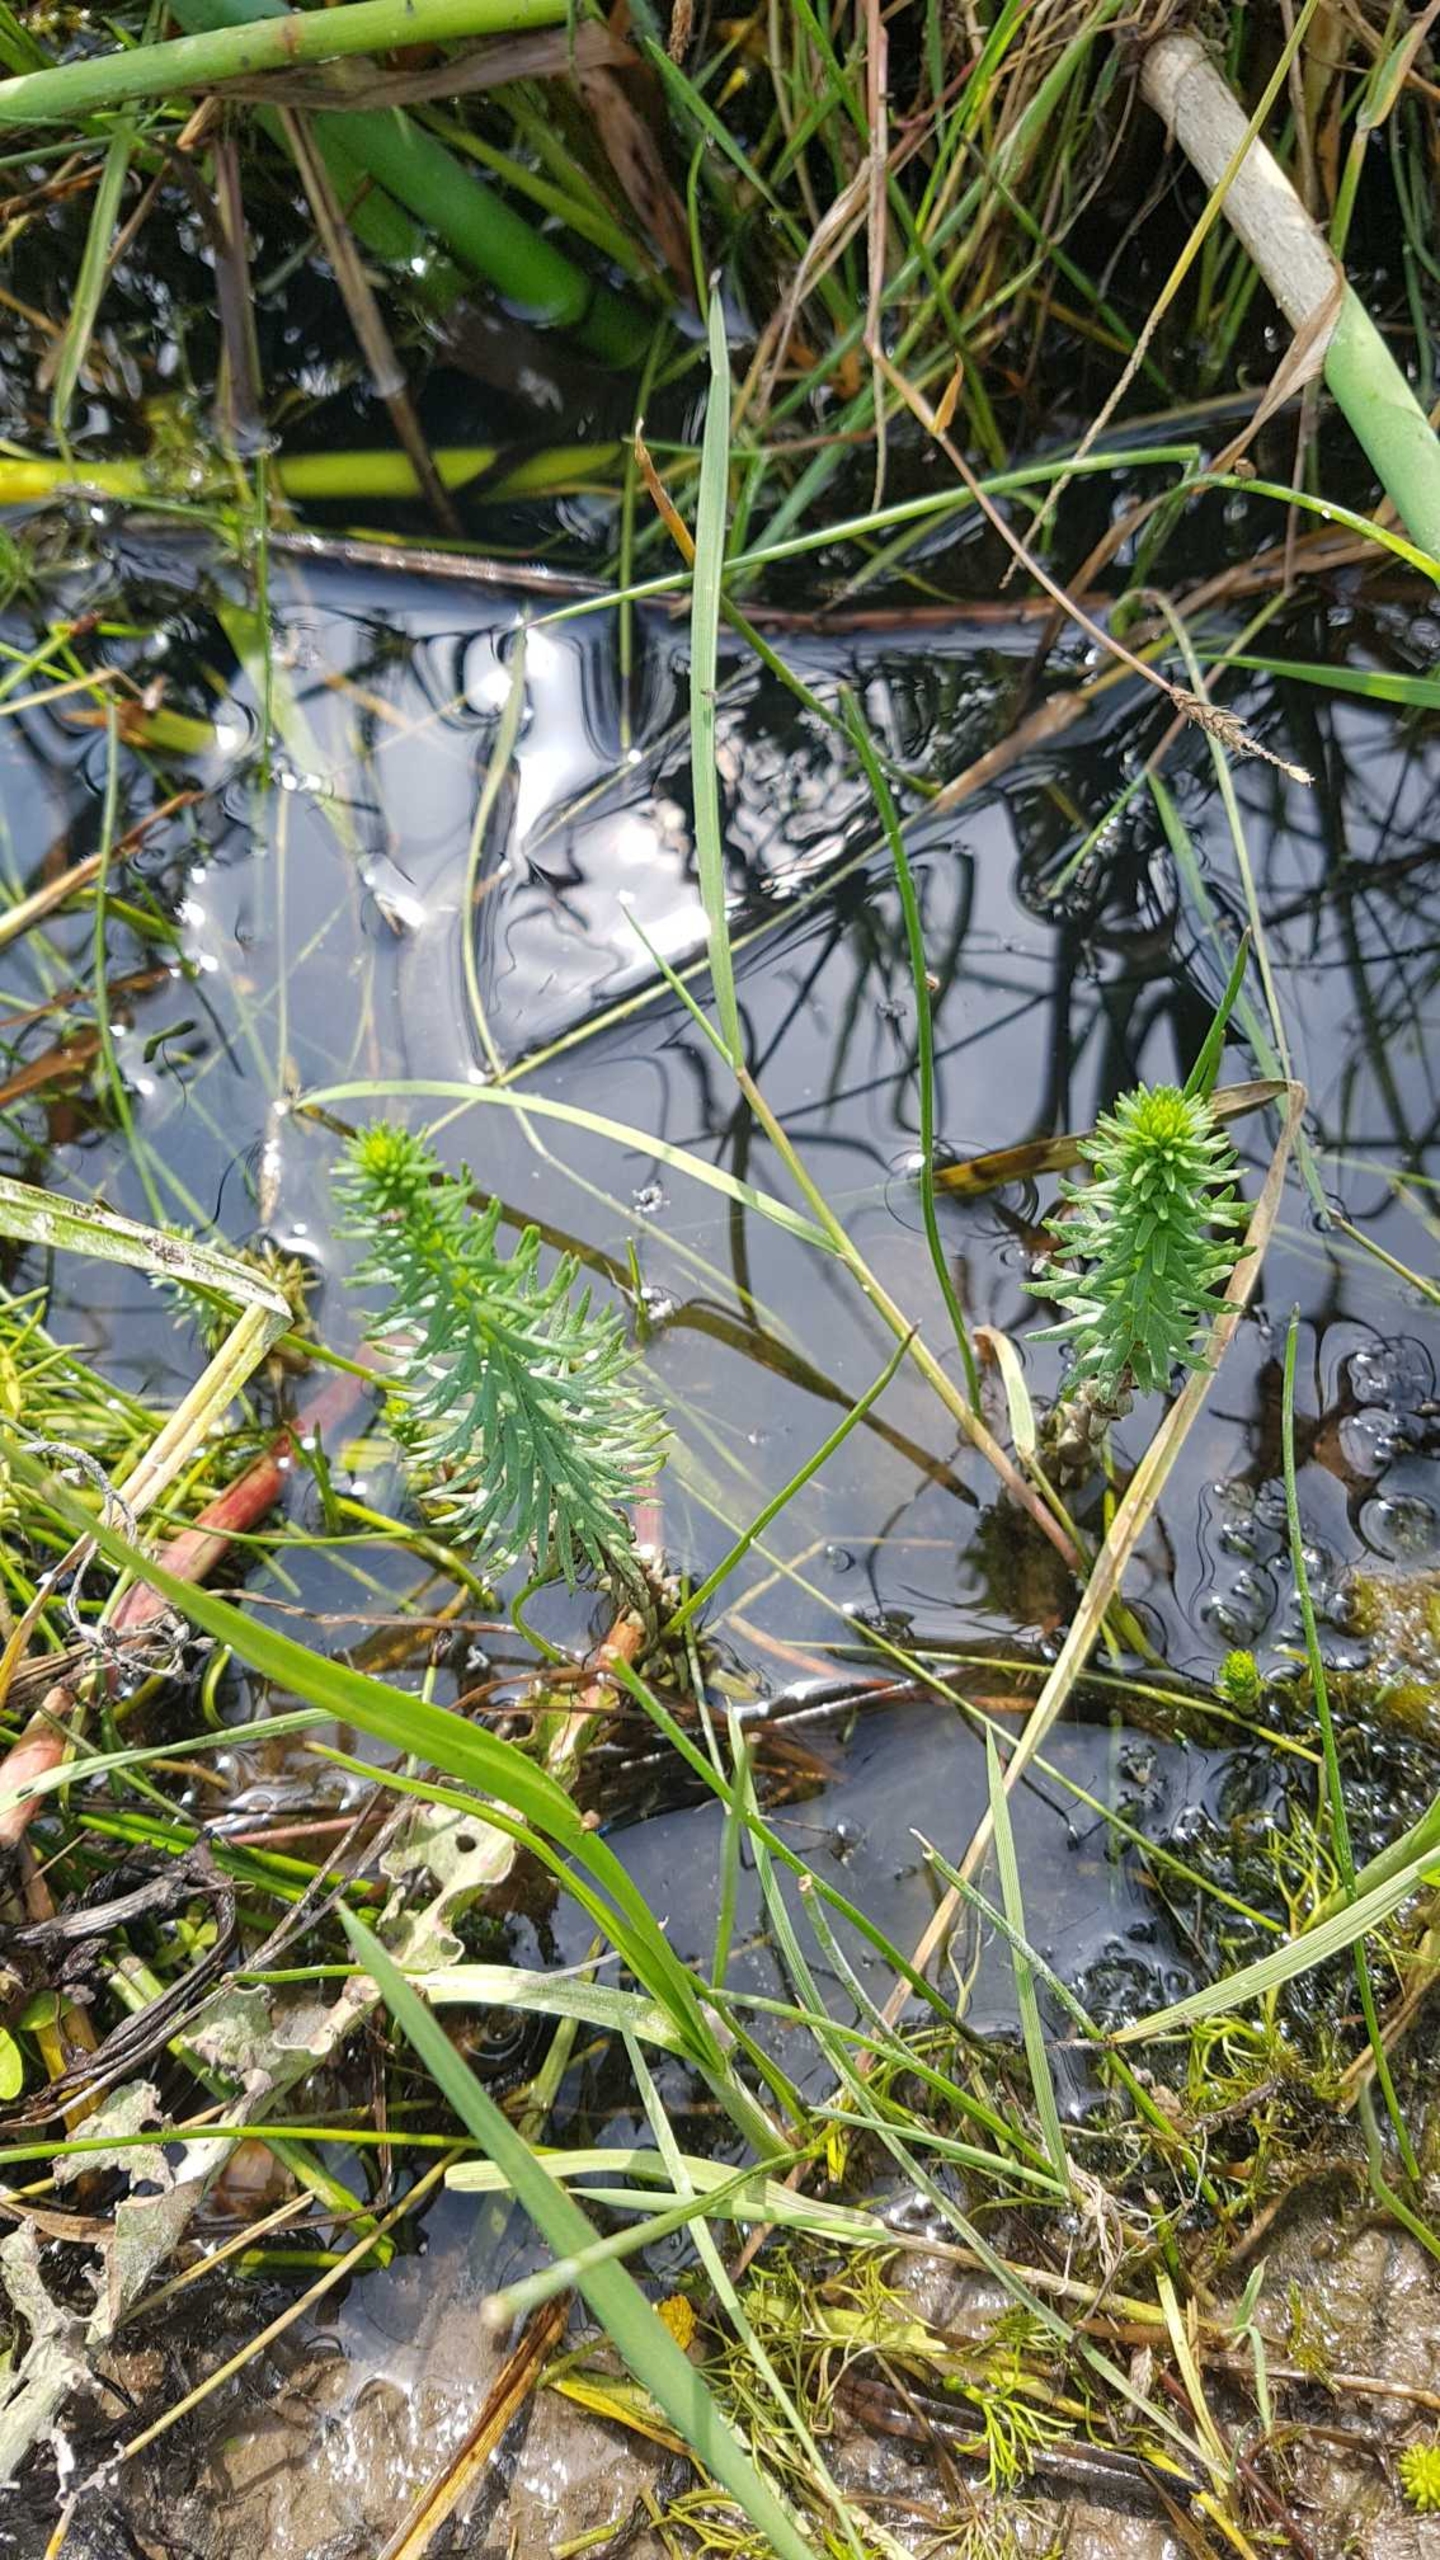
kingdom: Plantae
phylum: Tracheophyta
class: Magnoliopsida
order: Lamiales
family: Plantaginaceae
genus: Hippuris
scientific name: Hippuris vulgaris
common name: Vandspir
